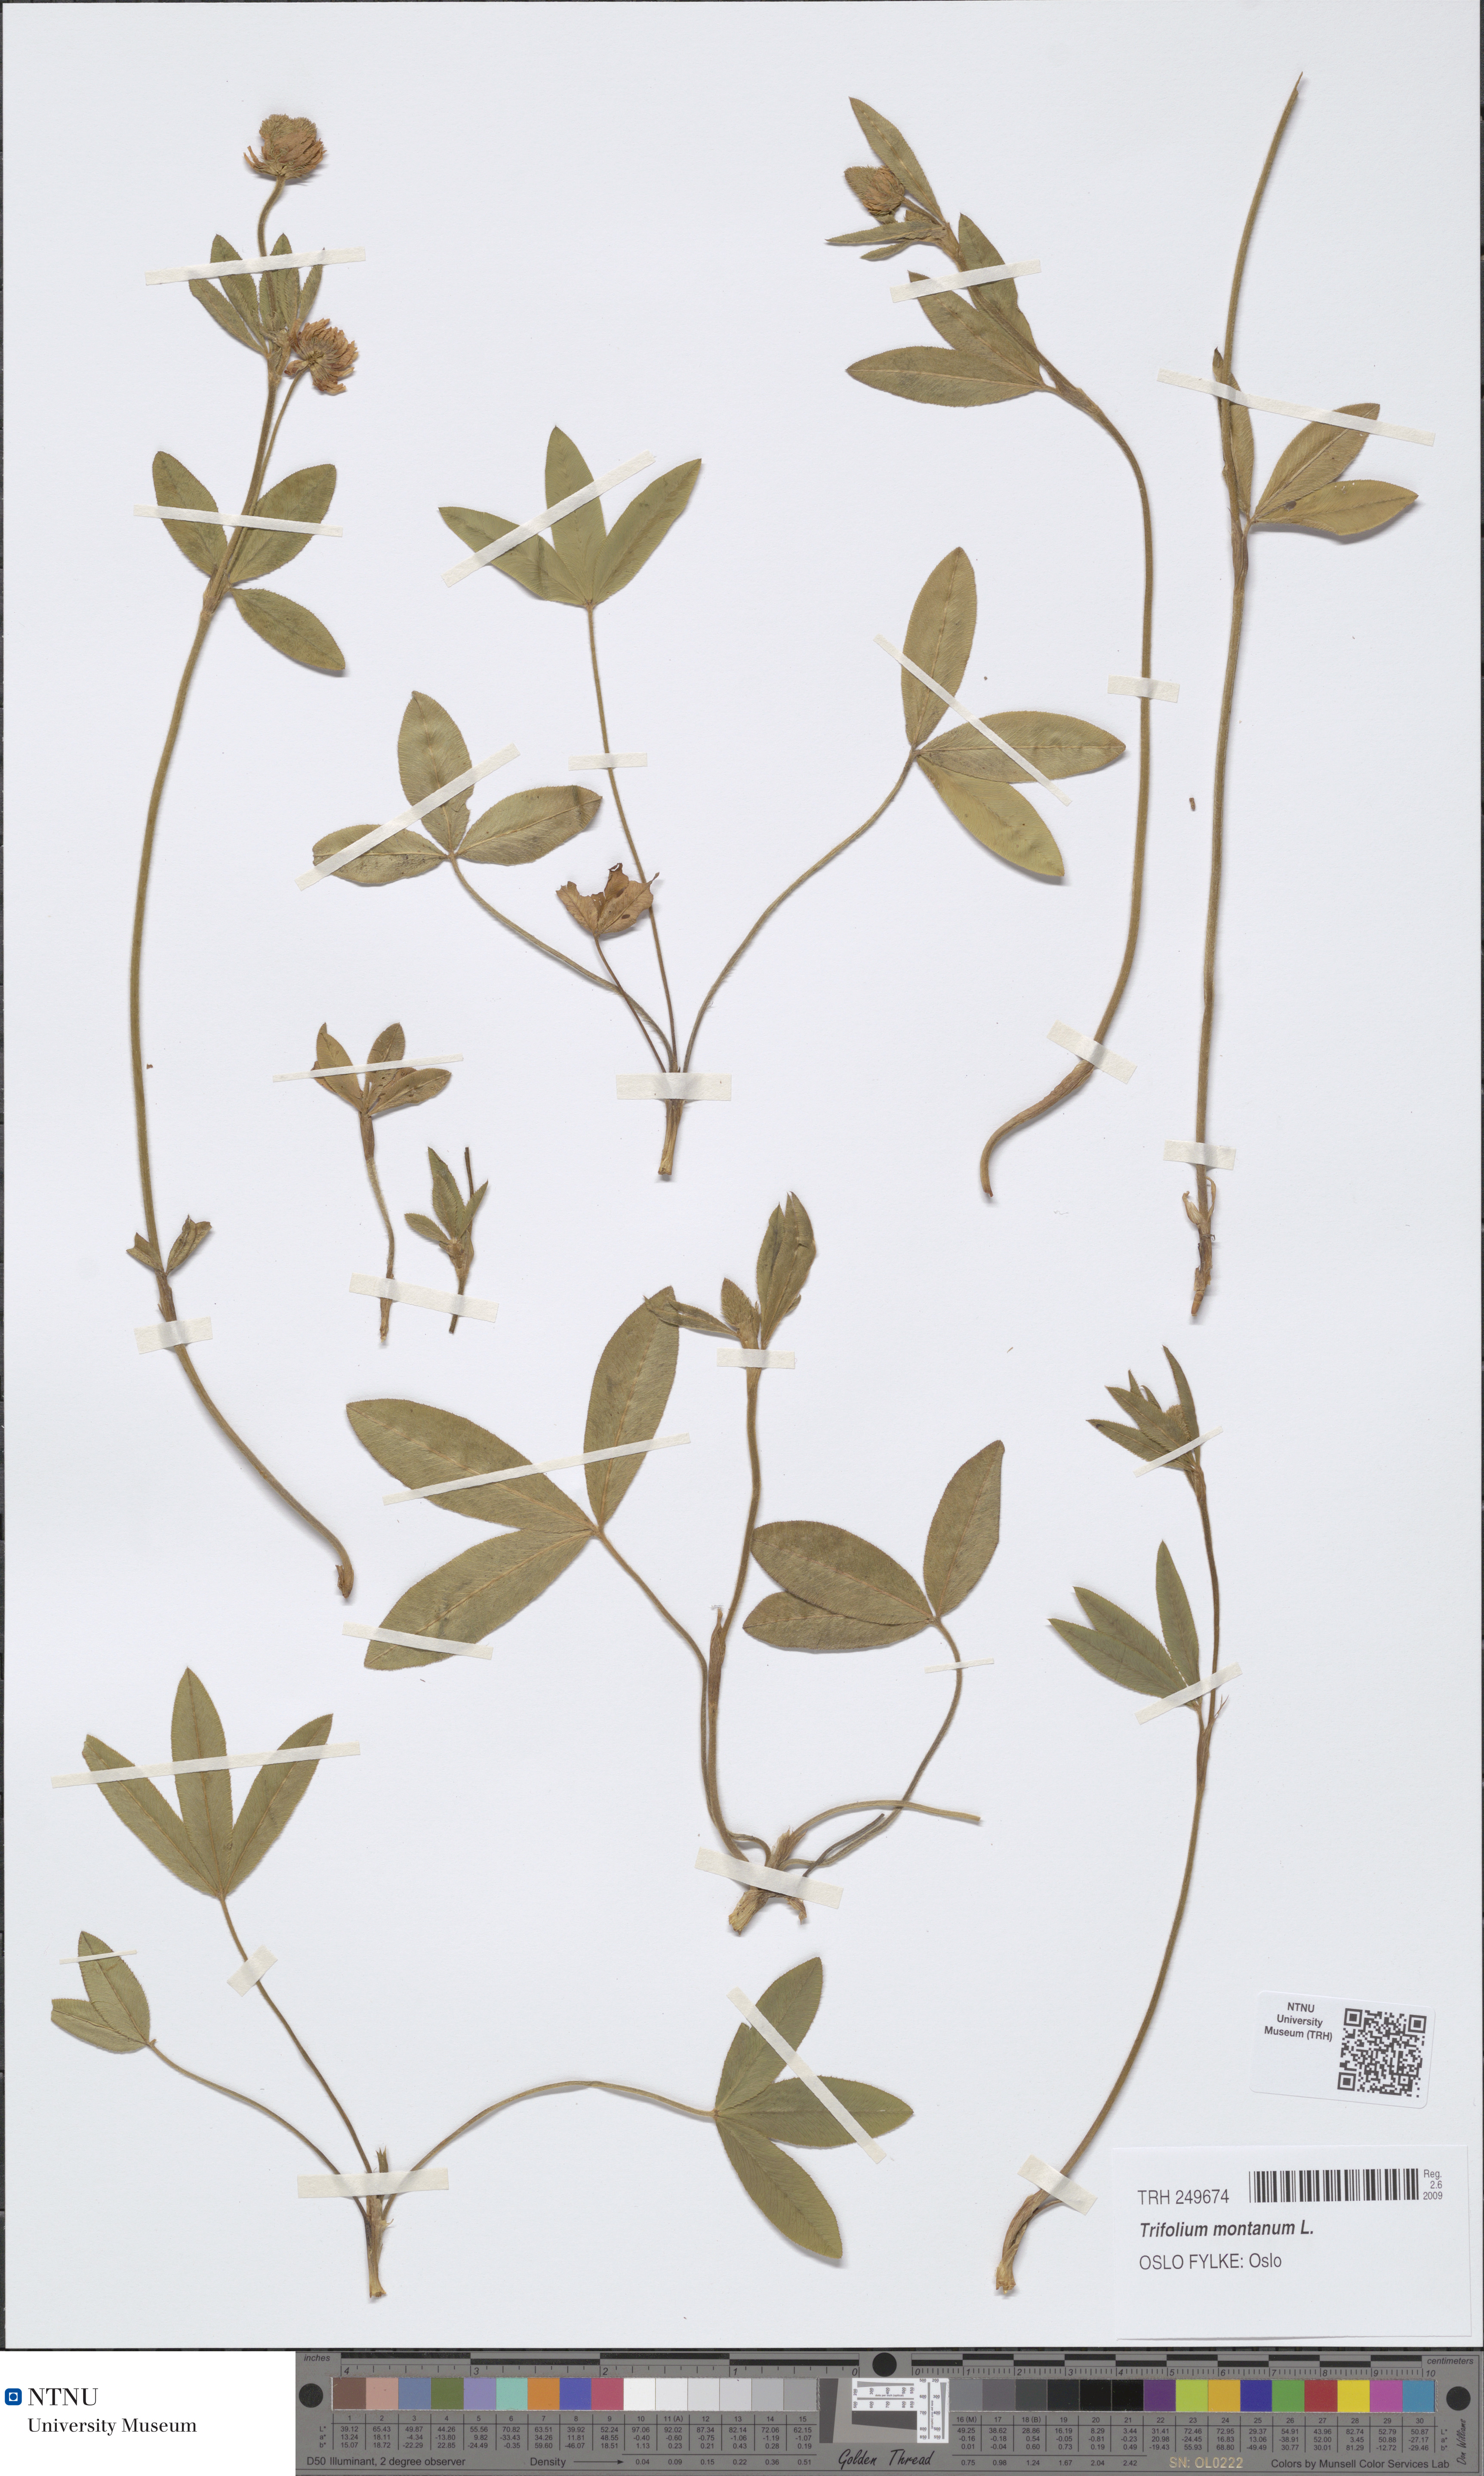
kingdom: Plantae
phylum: Tracheophyta
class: Magnoliopsida
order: Fabales
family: Fabaceae
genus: Trifolium
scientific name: Trifolium montanum
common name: Mountain clover
